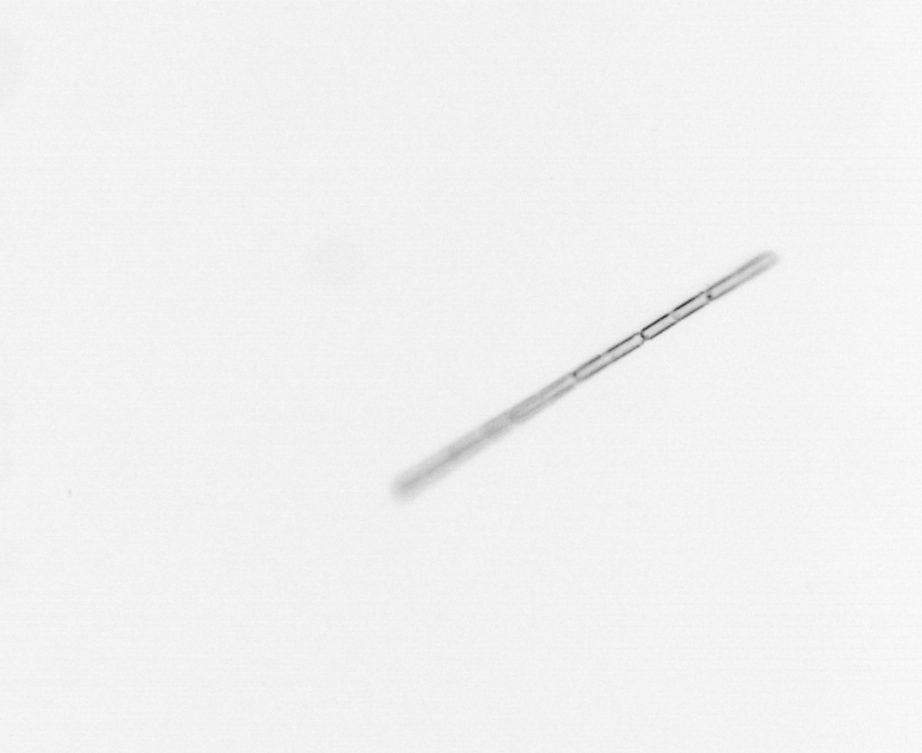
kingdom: Chromista
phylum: Ochrophyta
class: Bacillariophyceae
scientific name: Bacillariophyceae
